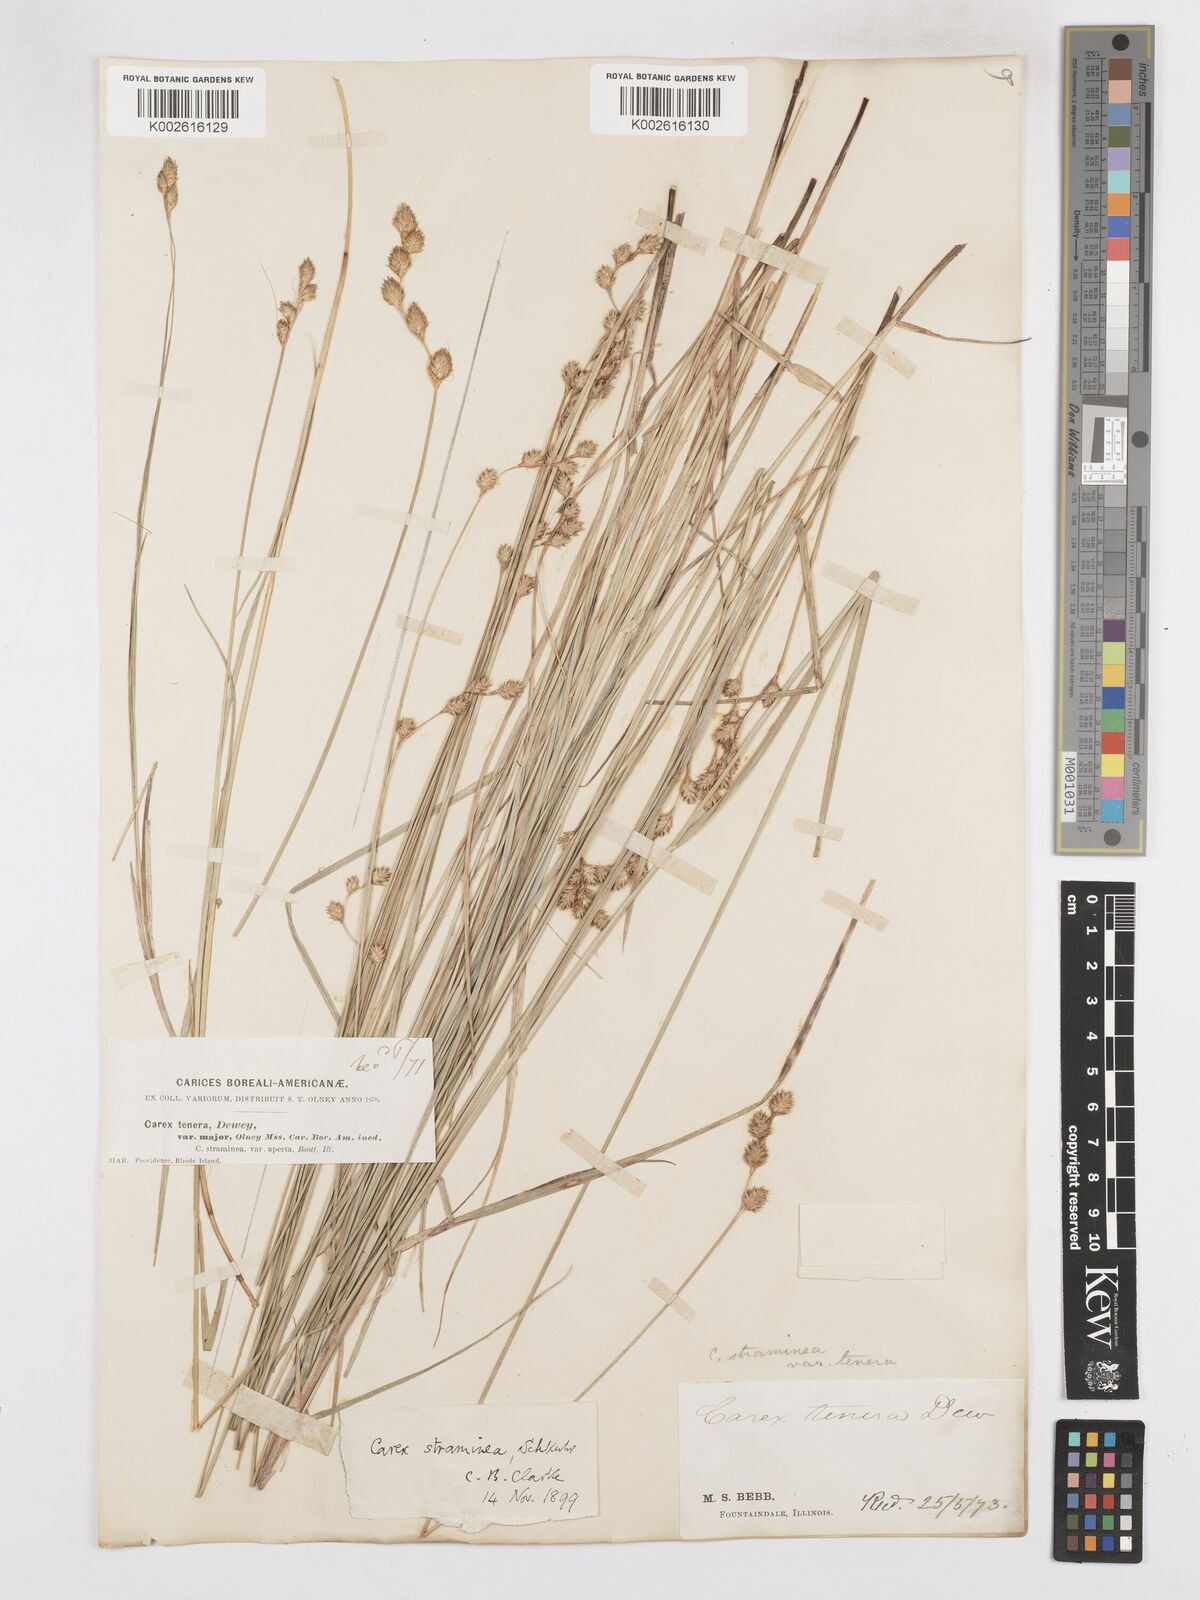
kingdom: Plantae
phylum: Tracheophyta
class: Liliopsida
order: Poales
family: Cyperaceae
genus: Carex
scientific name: Carex brevior
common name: Brevior sedge
